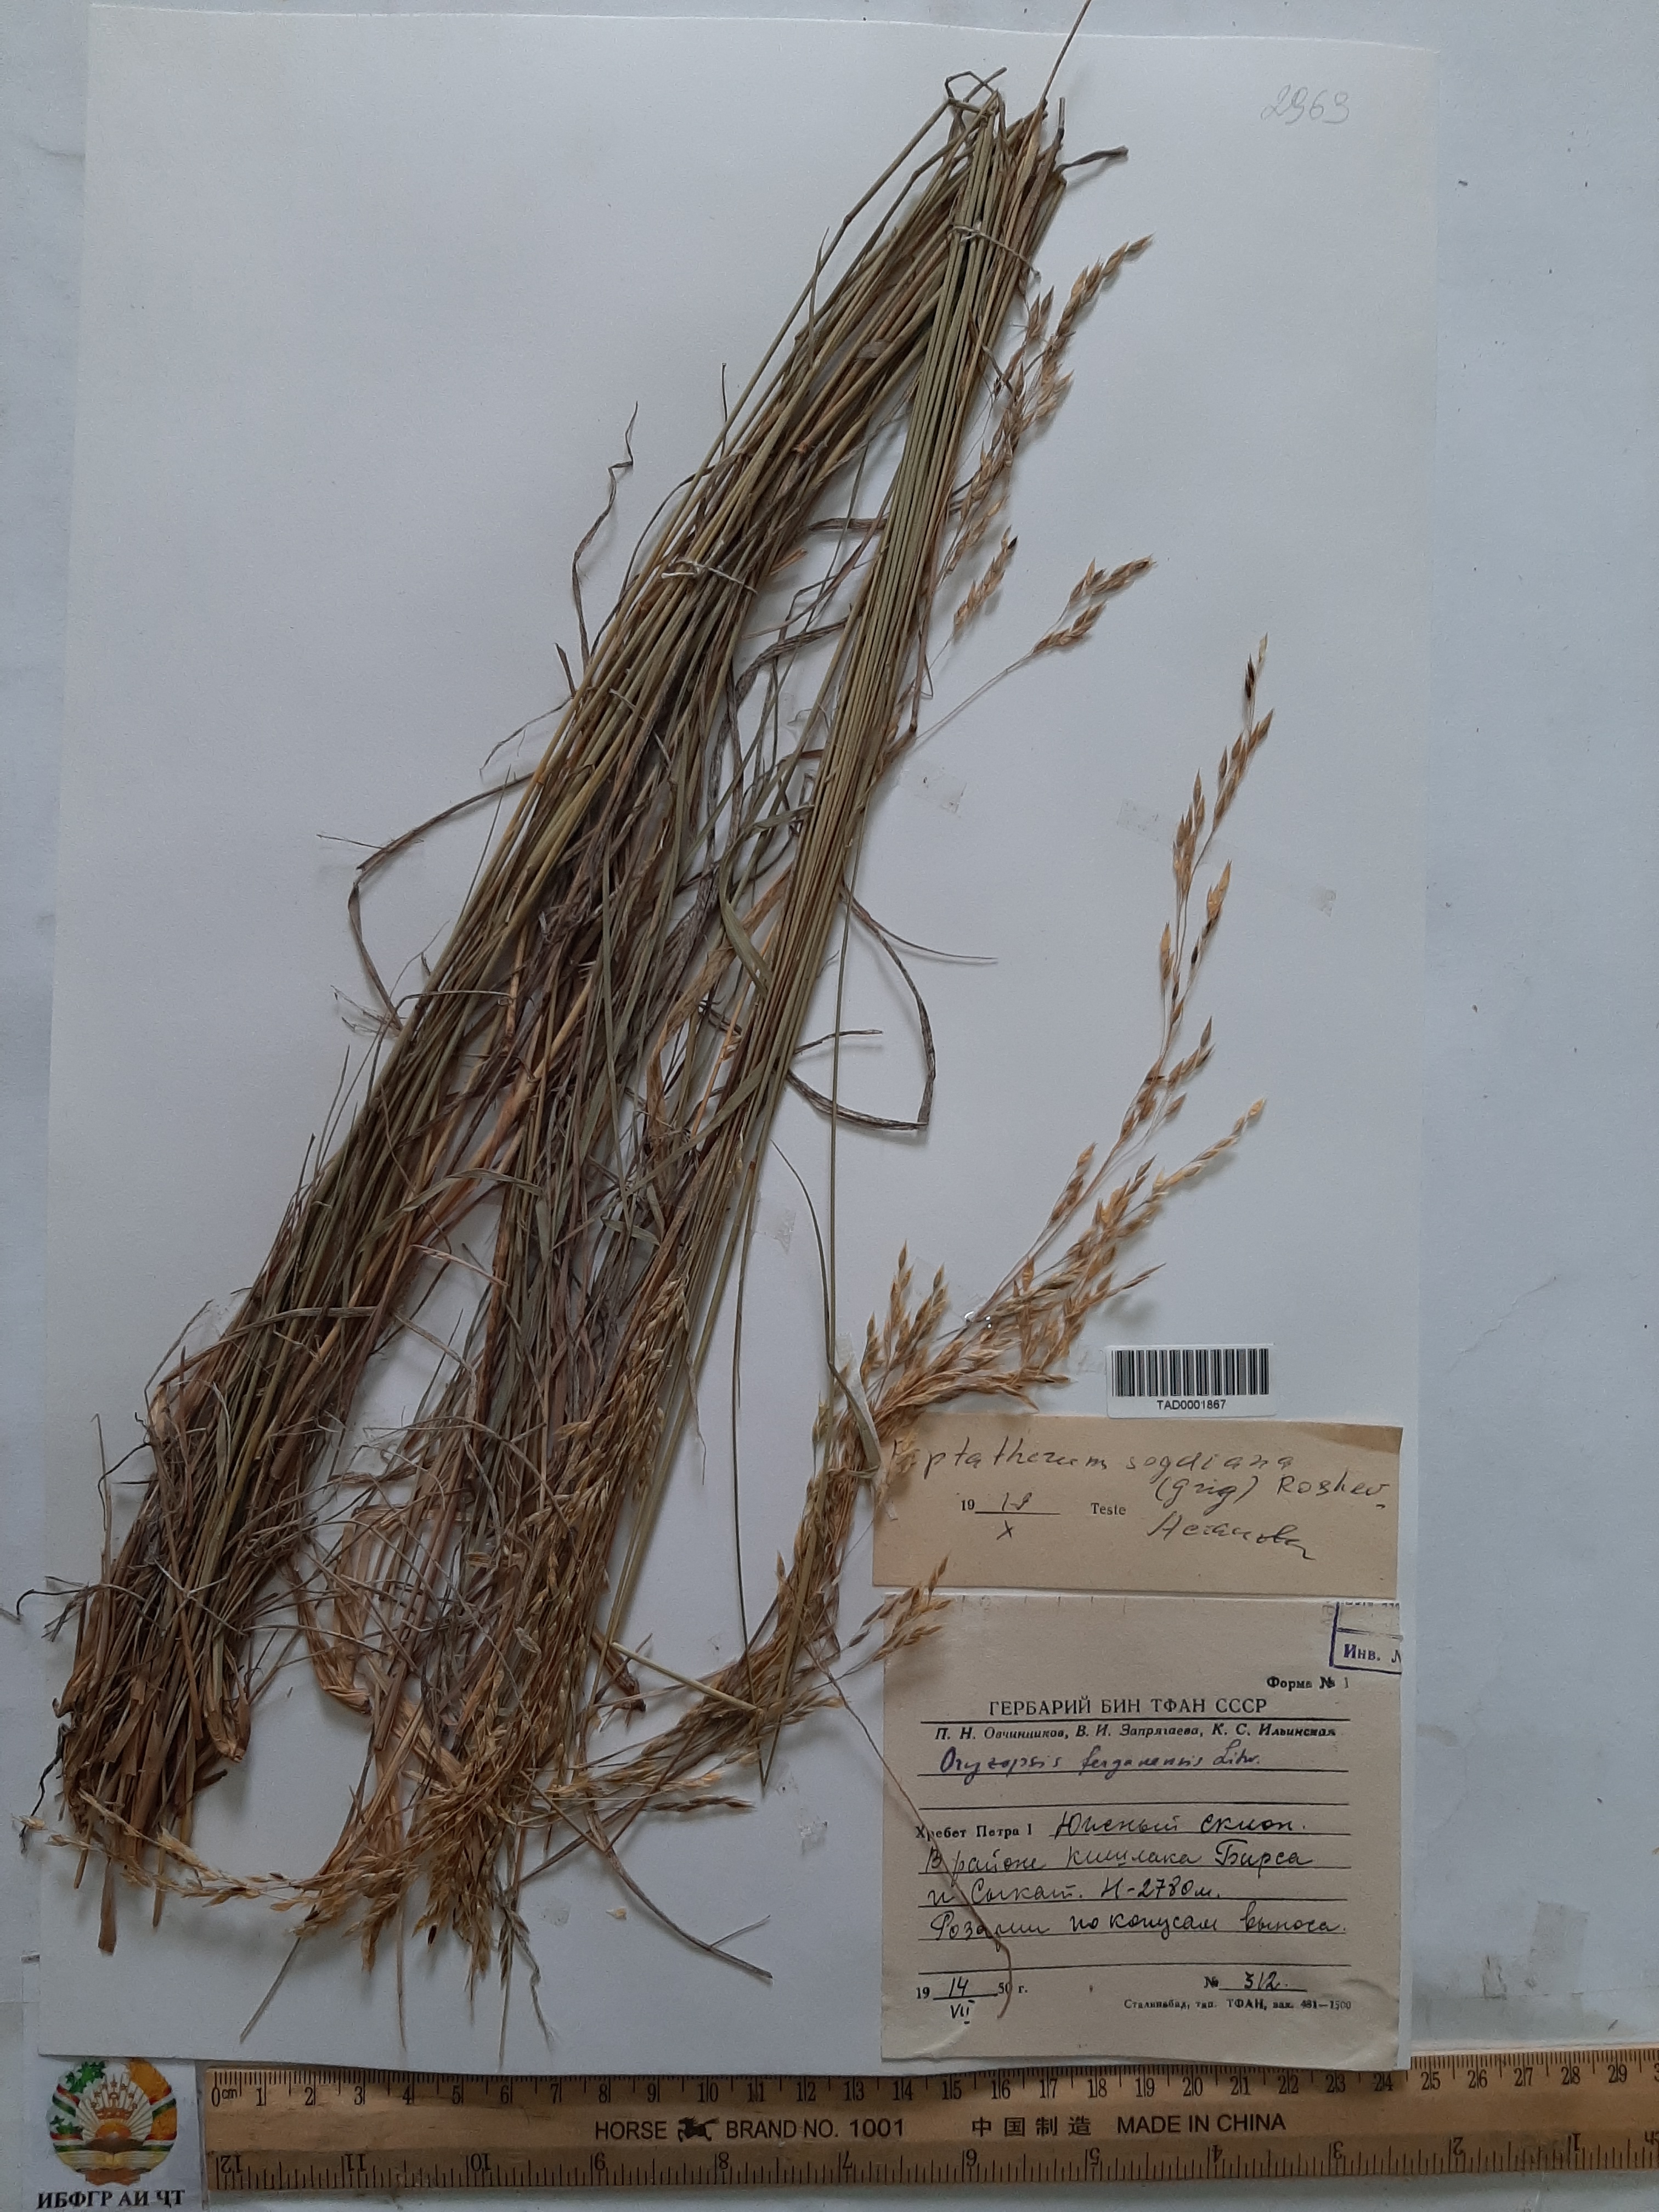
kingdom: Plantae
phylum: Tracheophyta
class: Liliopsida
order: Poales
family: Poaceae
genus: Piptatherum
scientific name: Piptatherum sogdianum
